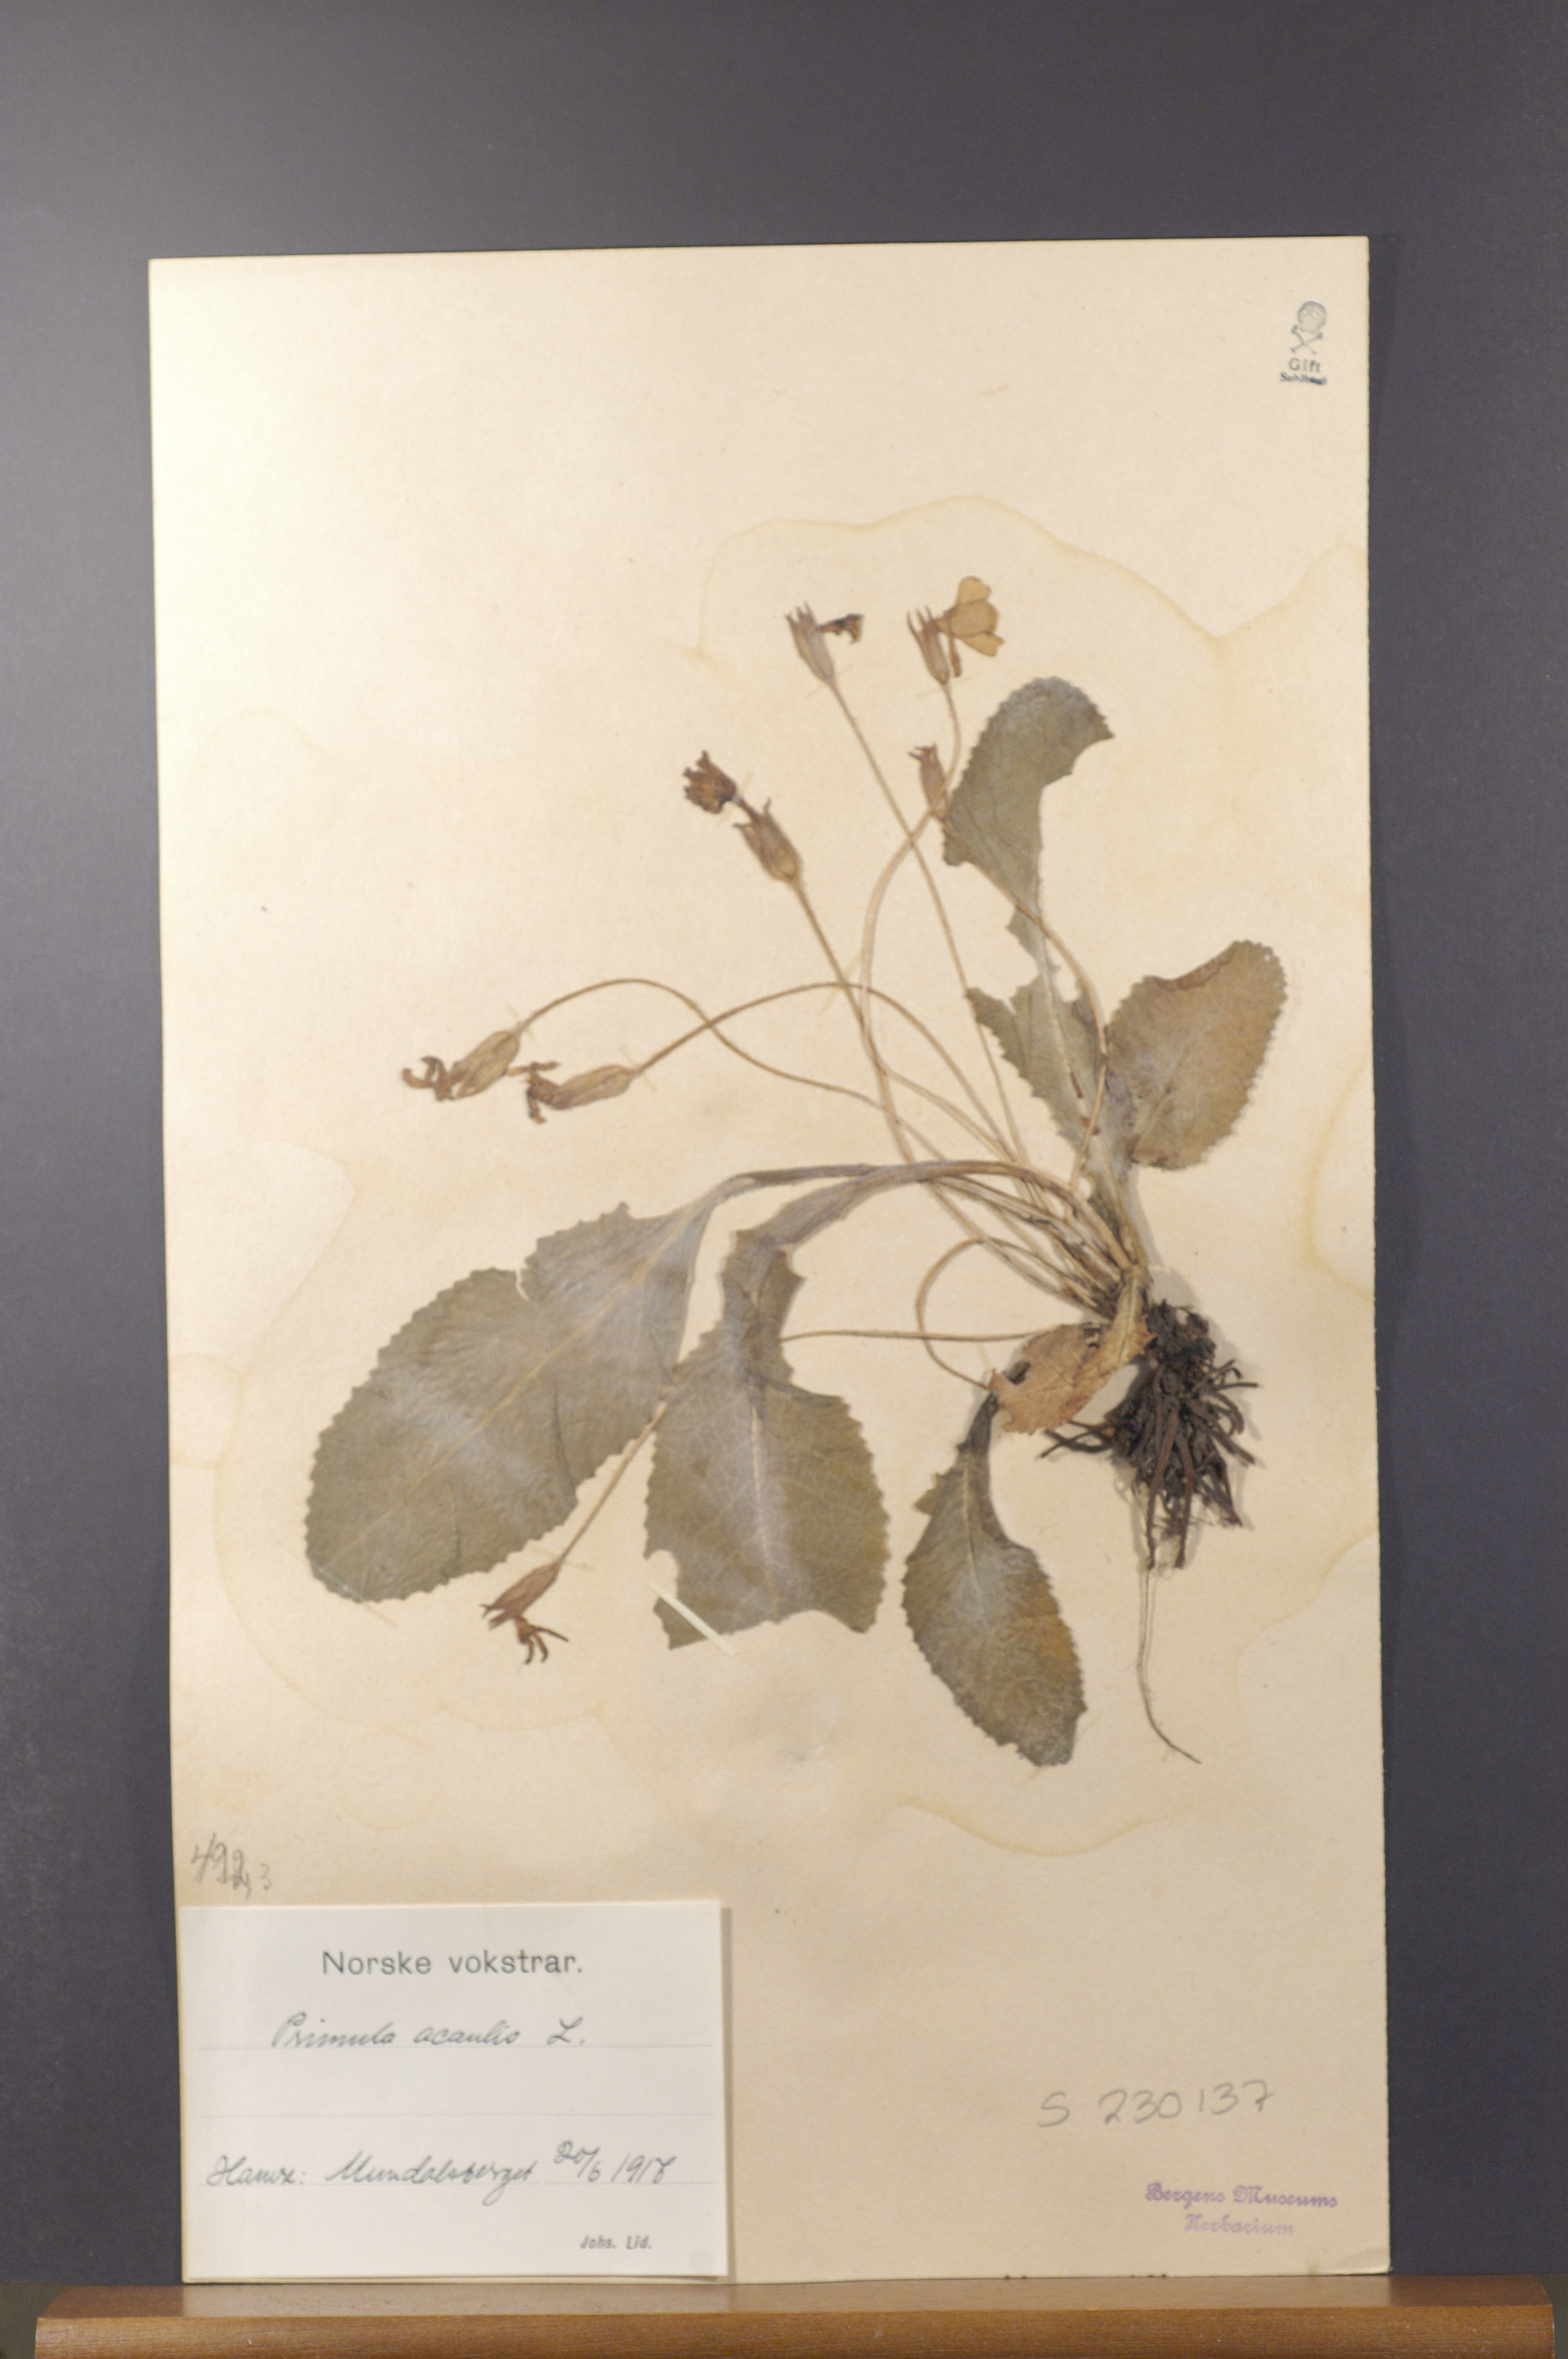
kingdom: Plantae
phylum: Tracheophyta
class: Magnoliopsida
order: Ericales
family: Primulaceae
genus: Primula
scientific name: Primula vulgaris
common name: Primrose
